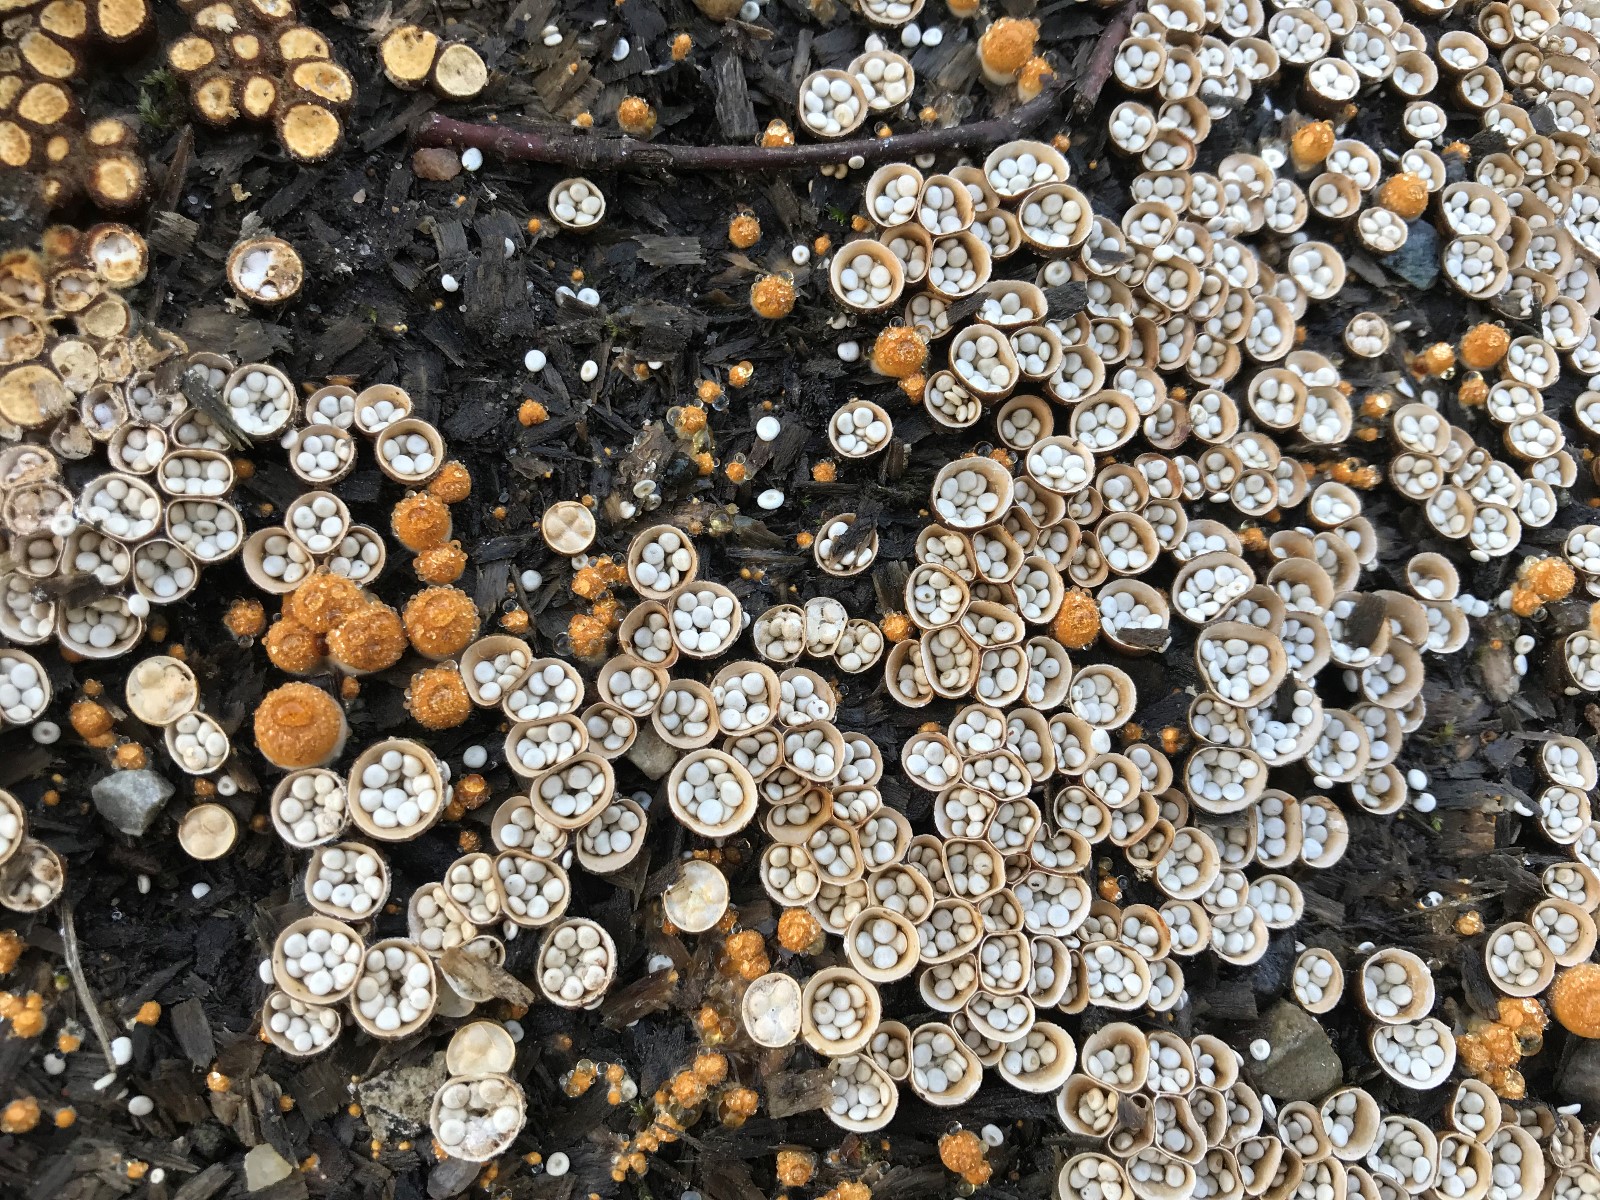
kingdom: Fungi
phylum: Basidiomycota
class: Agaricomycetes
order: Agaricales
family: Nidulariaceae
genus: Crucibulum
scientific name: Crucibulum crucibuliforme
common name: krukkesvamp
